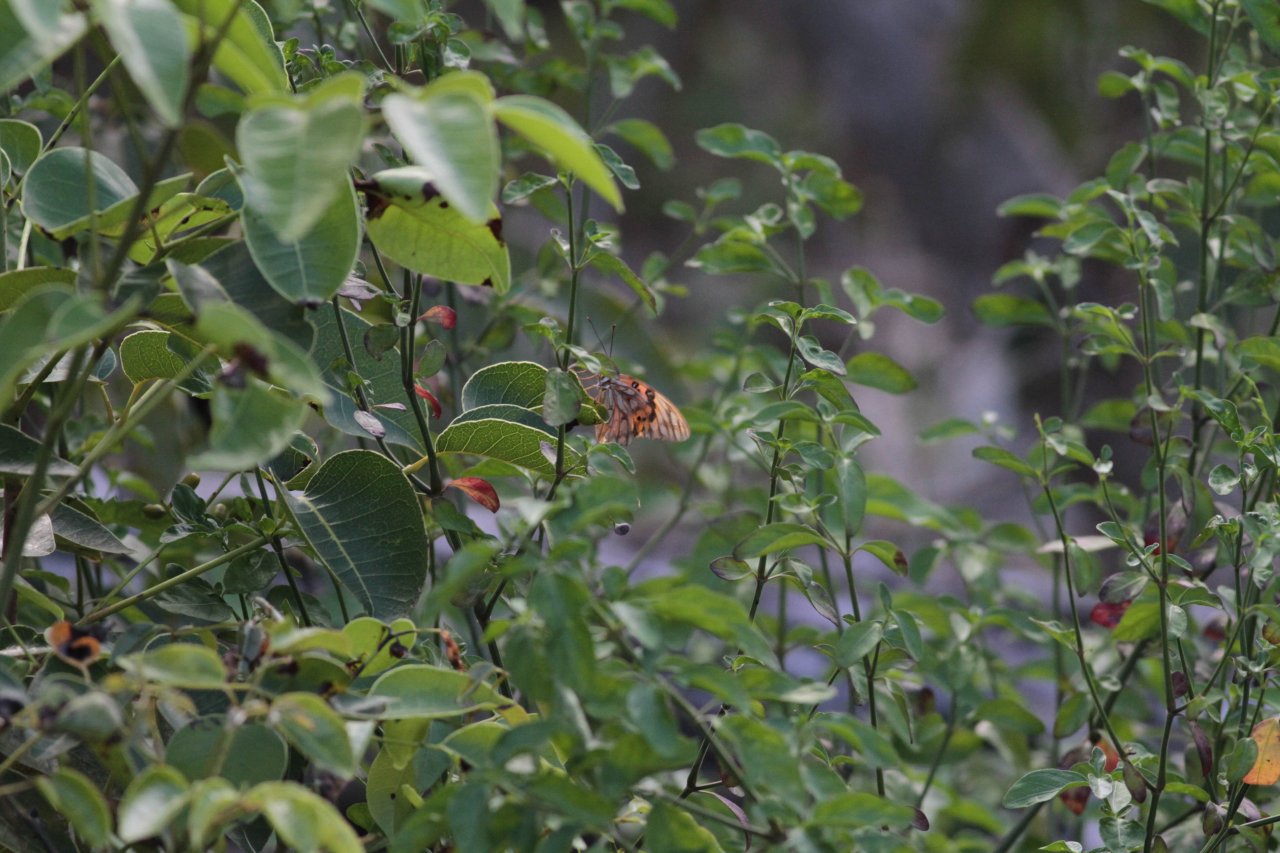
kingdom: Animalia
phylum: Arthropoda
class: Insecta
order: Lepidoptera
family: Nymphalidae
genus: Dione
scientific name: Dione vanillae
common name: Gulf Fritillary
